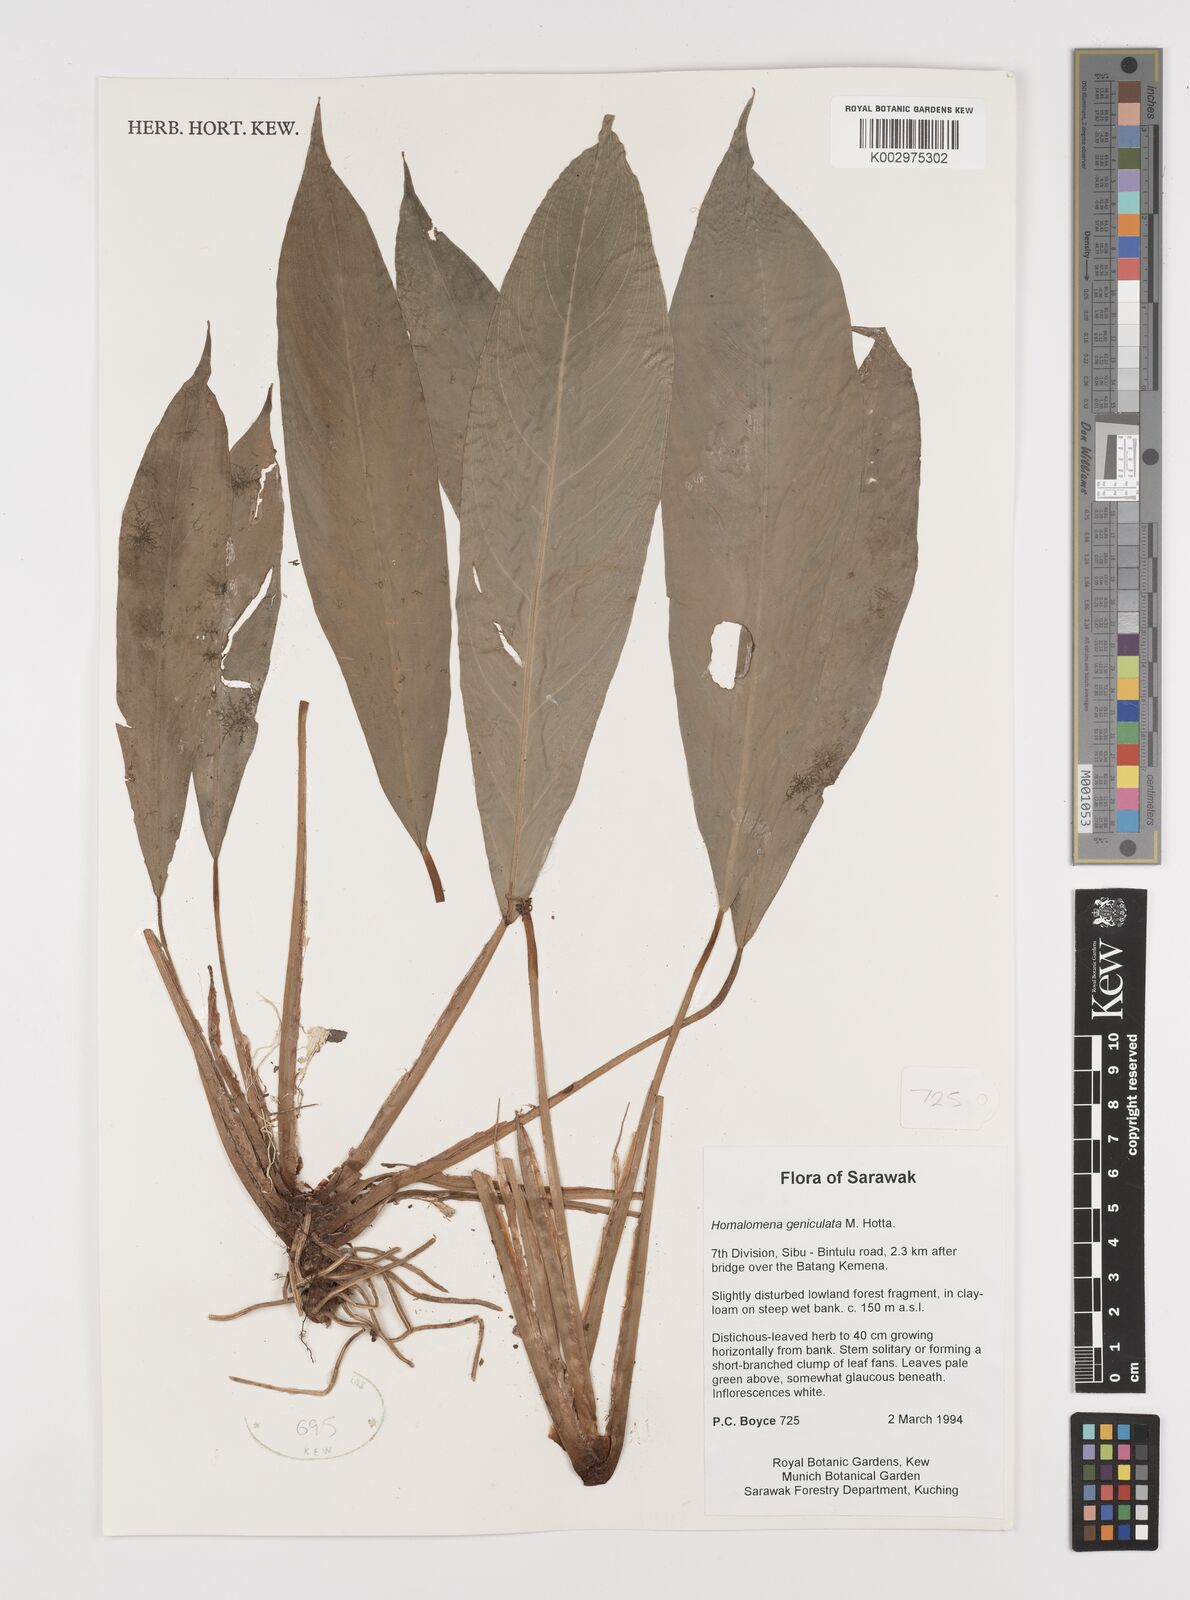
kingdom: Plantae
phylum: Tracheophyta
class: Liliopsida
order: Alismatales
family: Araceae
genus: Homalomena
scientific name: Homalomena punctulata
